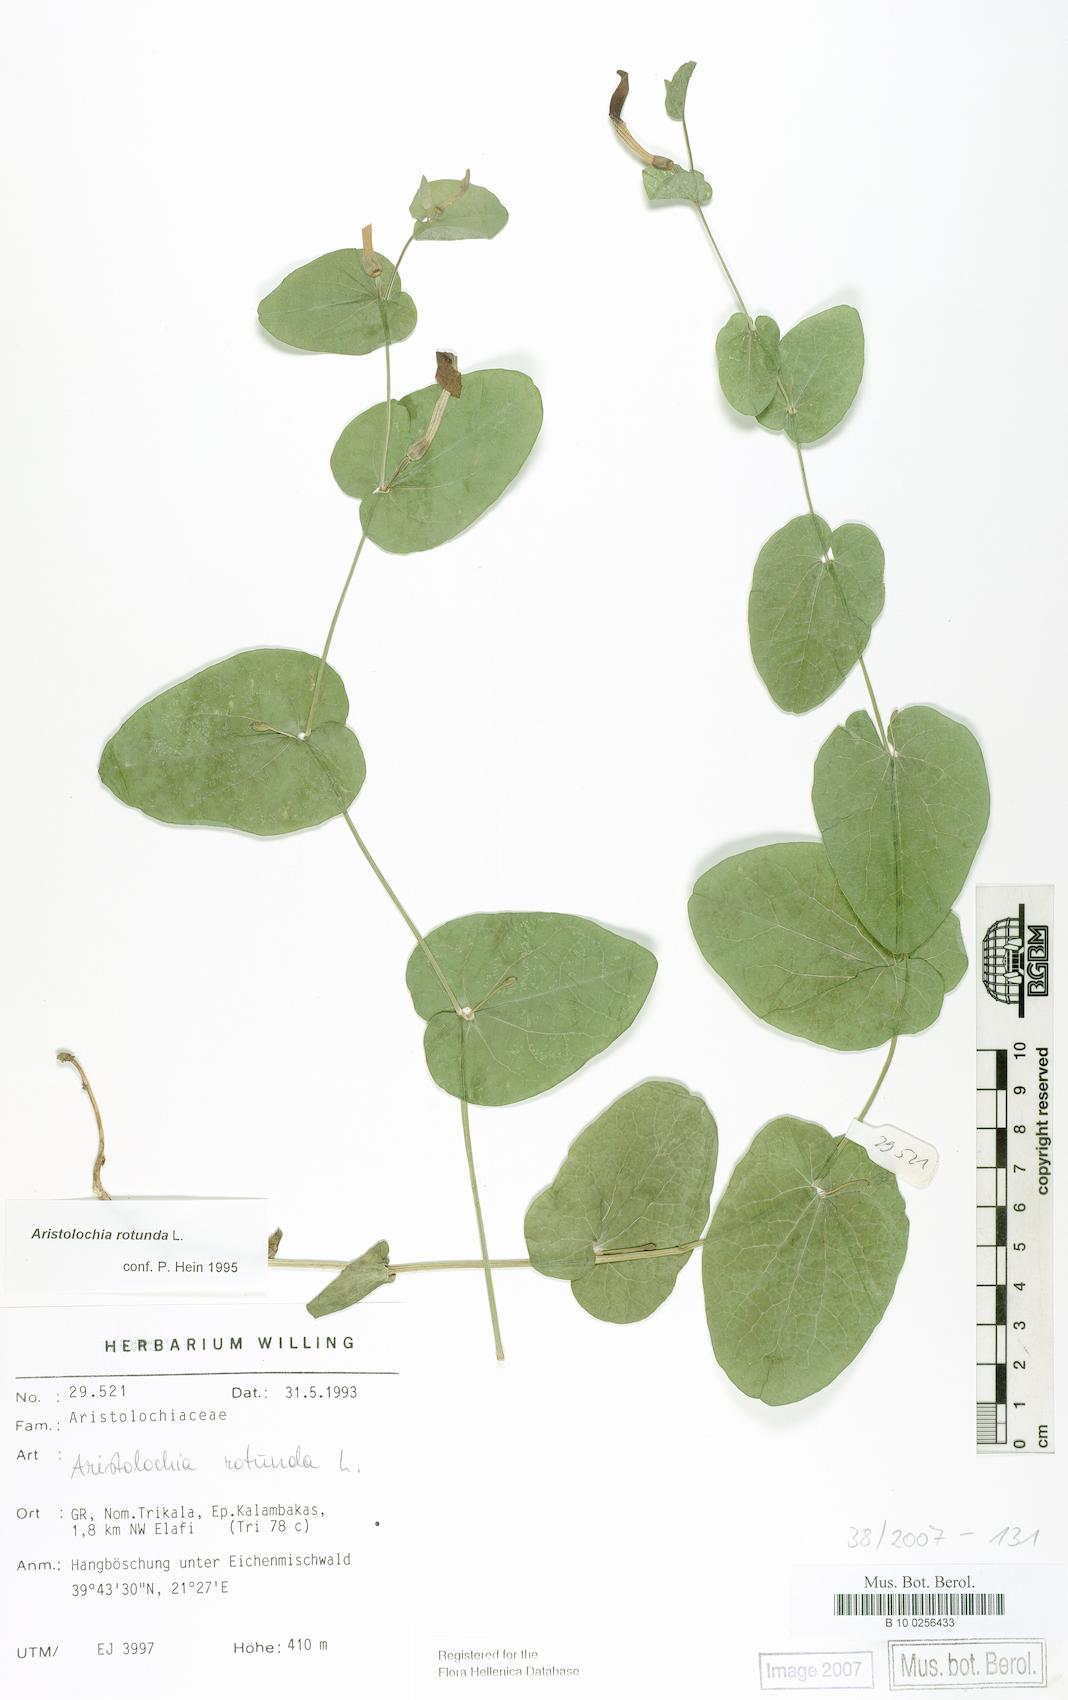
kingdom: Plantae
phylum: Tracheophyta
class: Magnoliopsida
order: Piperales
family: Aristolochiaceae
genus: Aristolochia
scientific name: Aristolochia rotunda
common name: Smearwort
